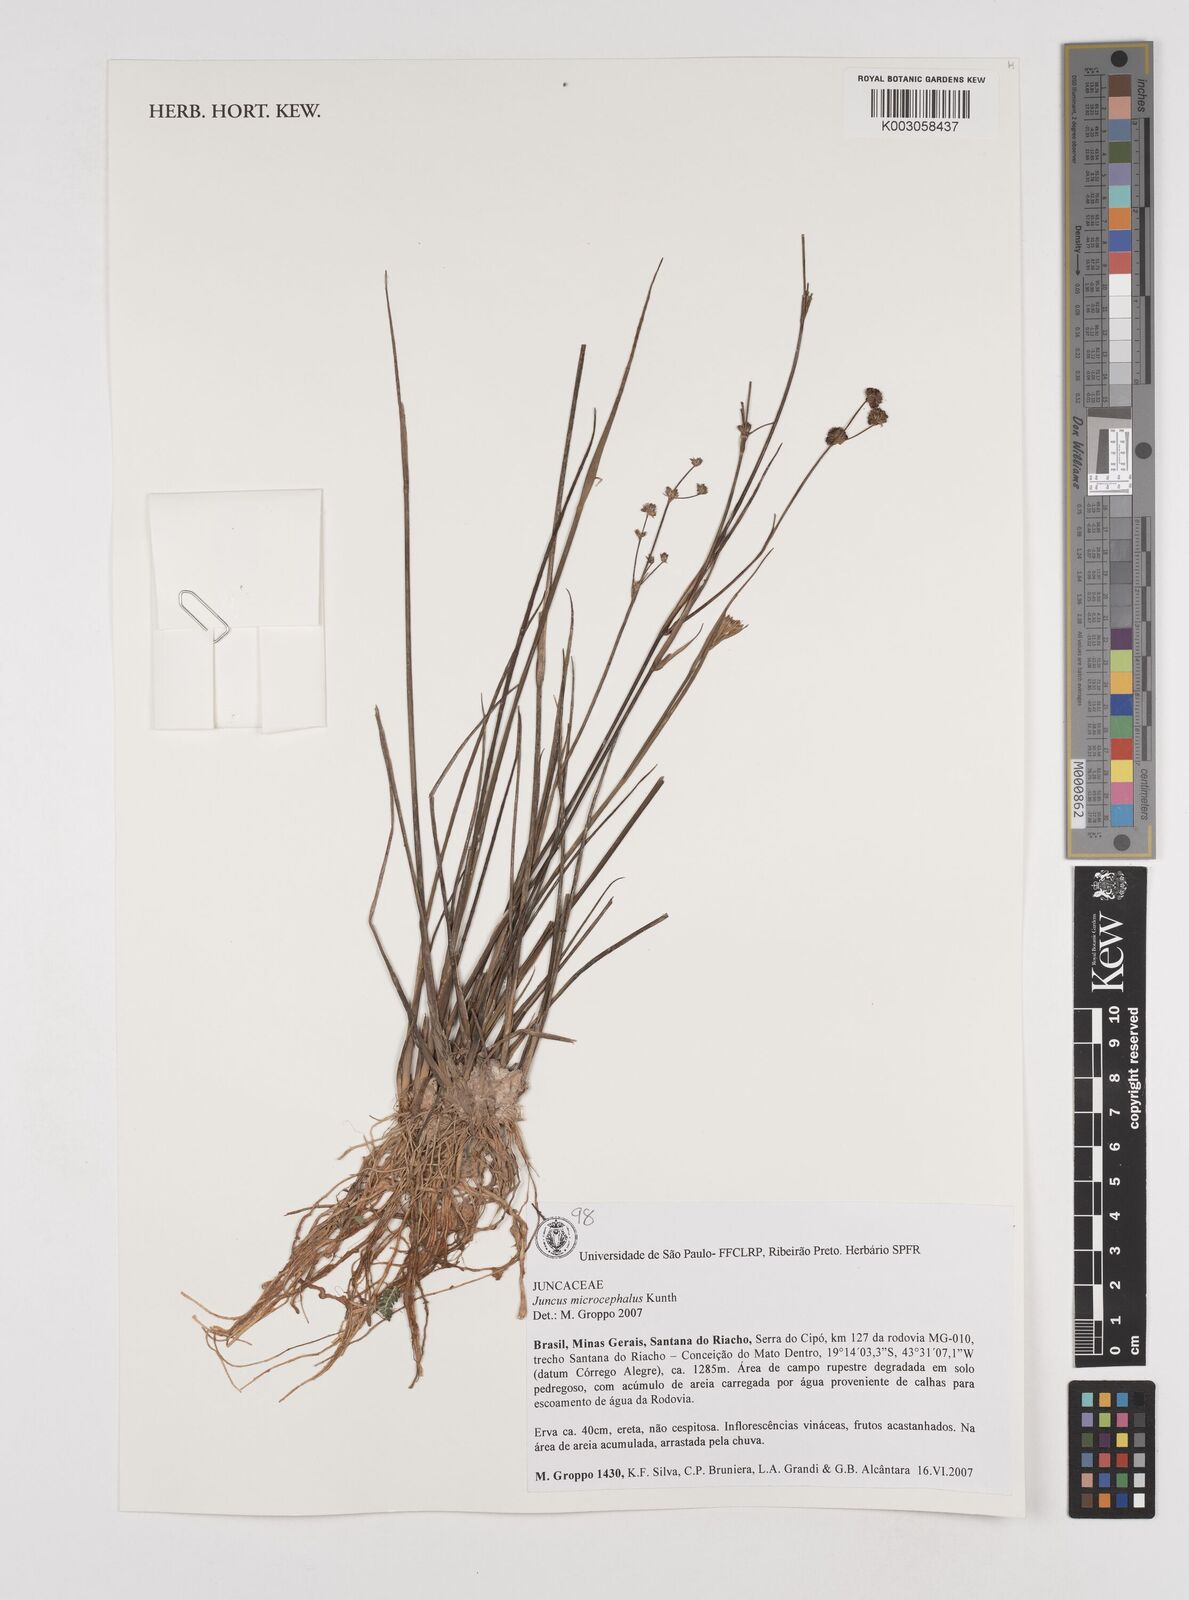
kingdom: Plantae
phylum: Tracheophyta
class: Liliopsida
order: Poales
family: Juncaceae
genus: Juncus
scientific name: Juncus microcephalus
